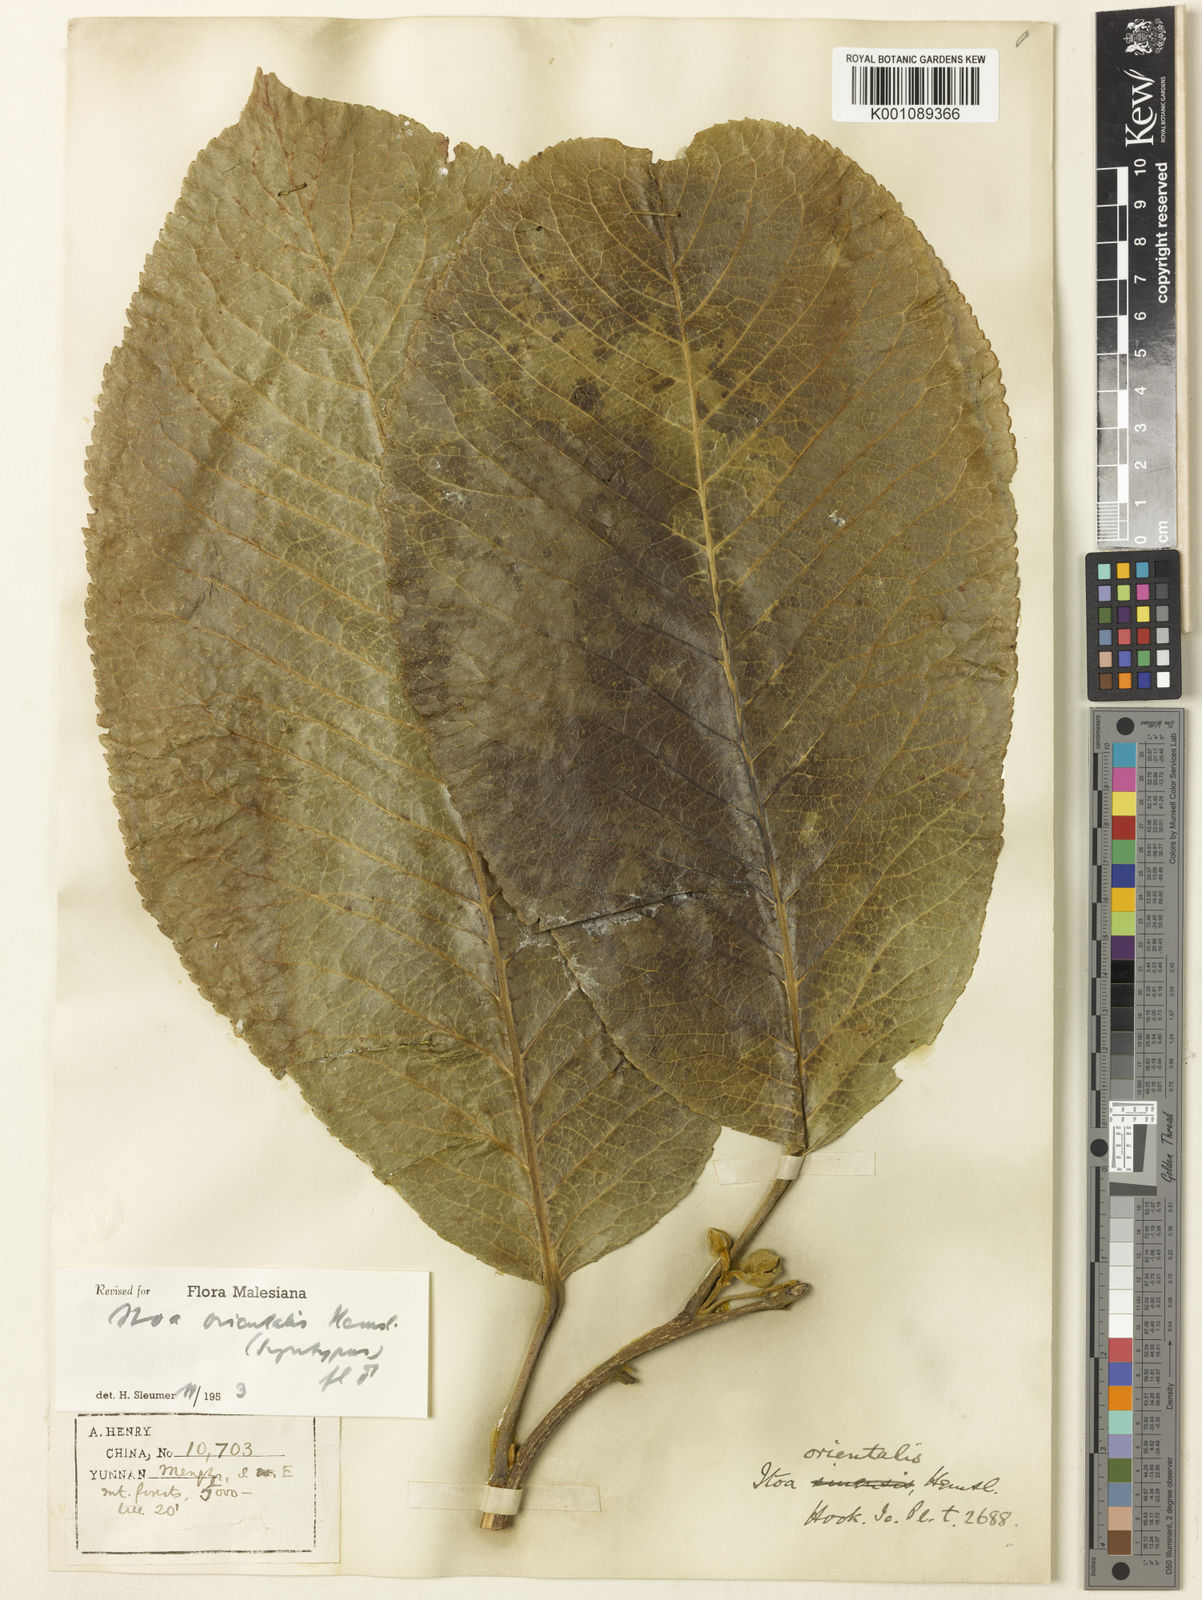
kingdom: Plantae
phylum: Tracheophyta
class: Magnoliopsida
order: Malpighiales
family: Salicaceae
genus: Itoa
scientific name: Itoa orientalis
